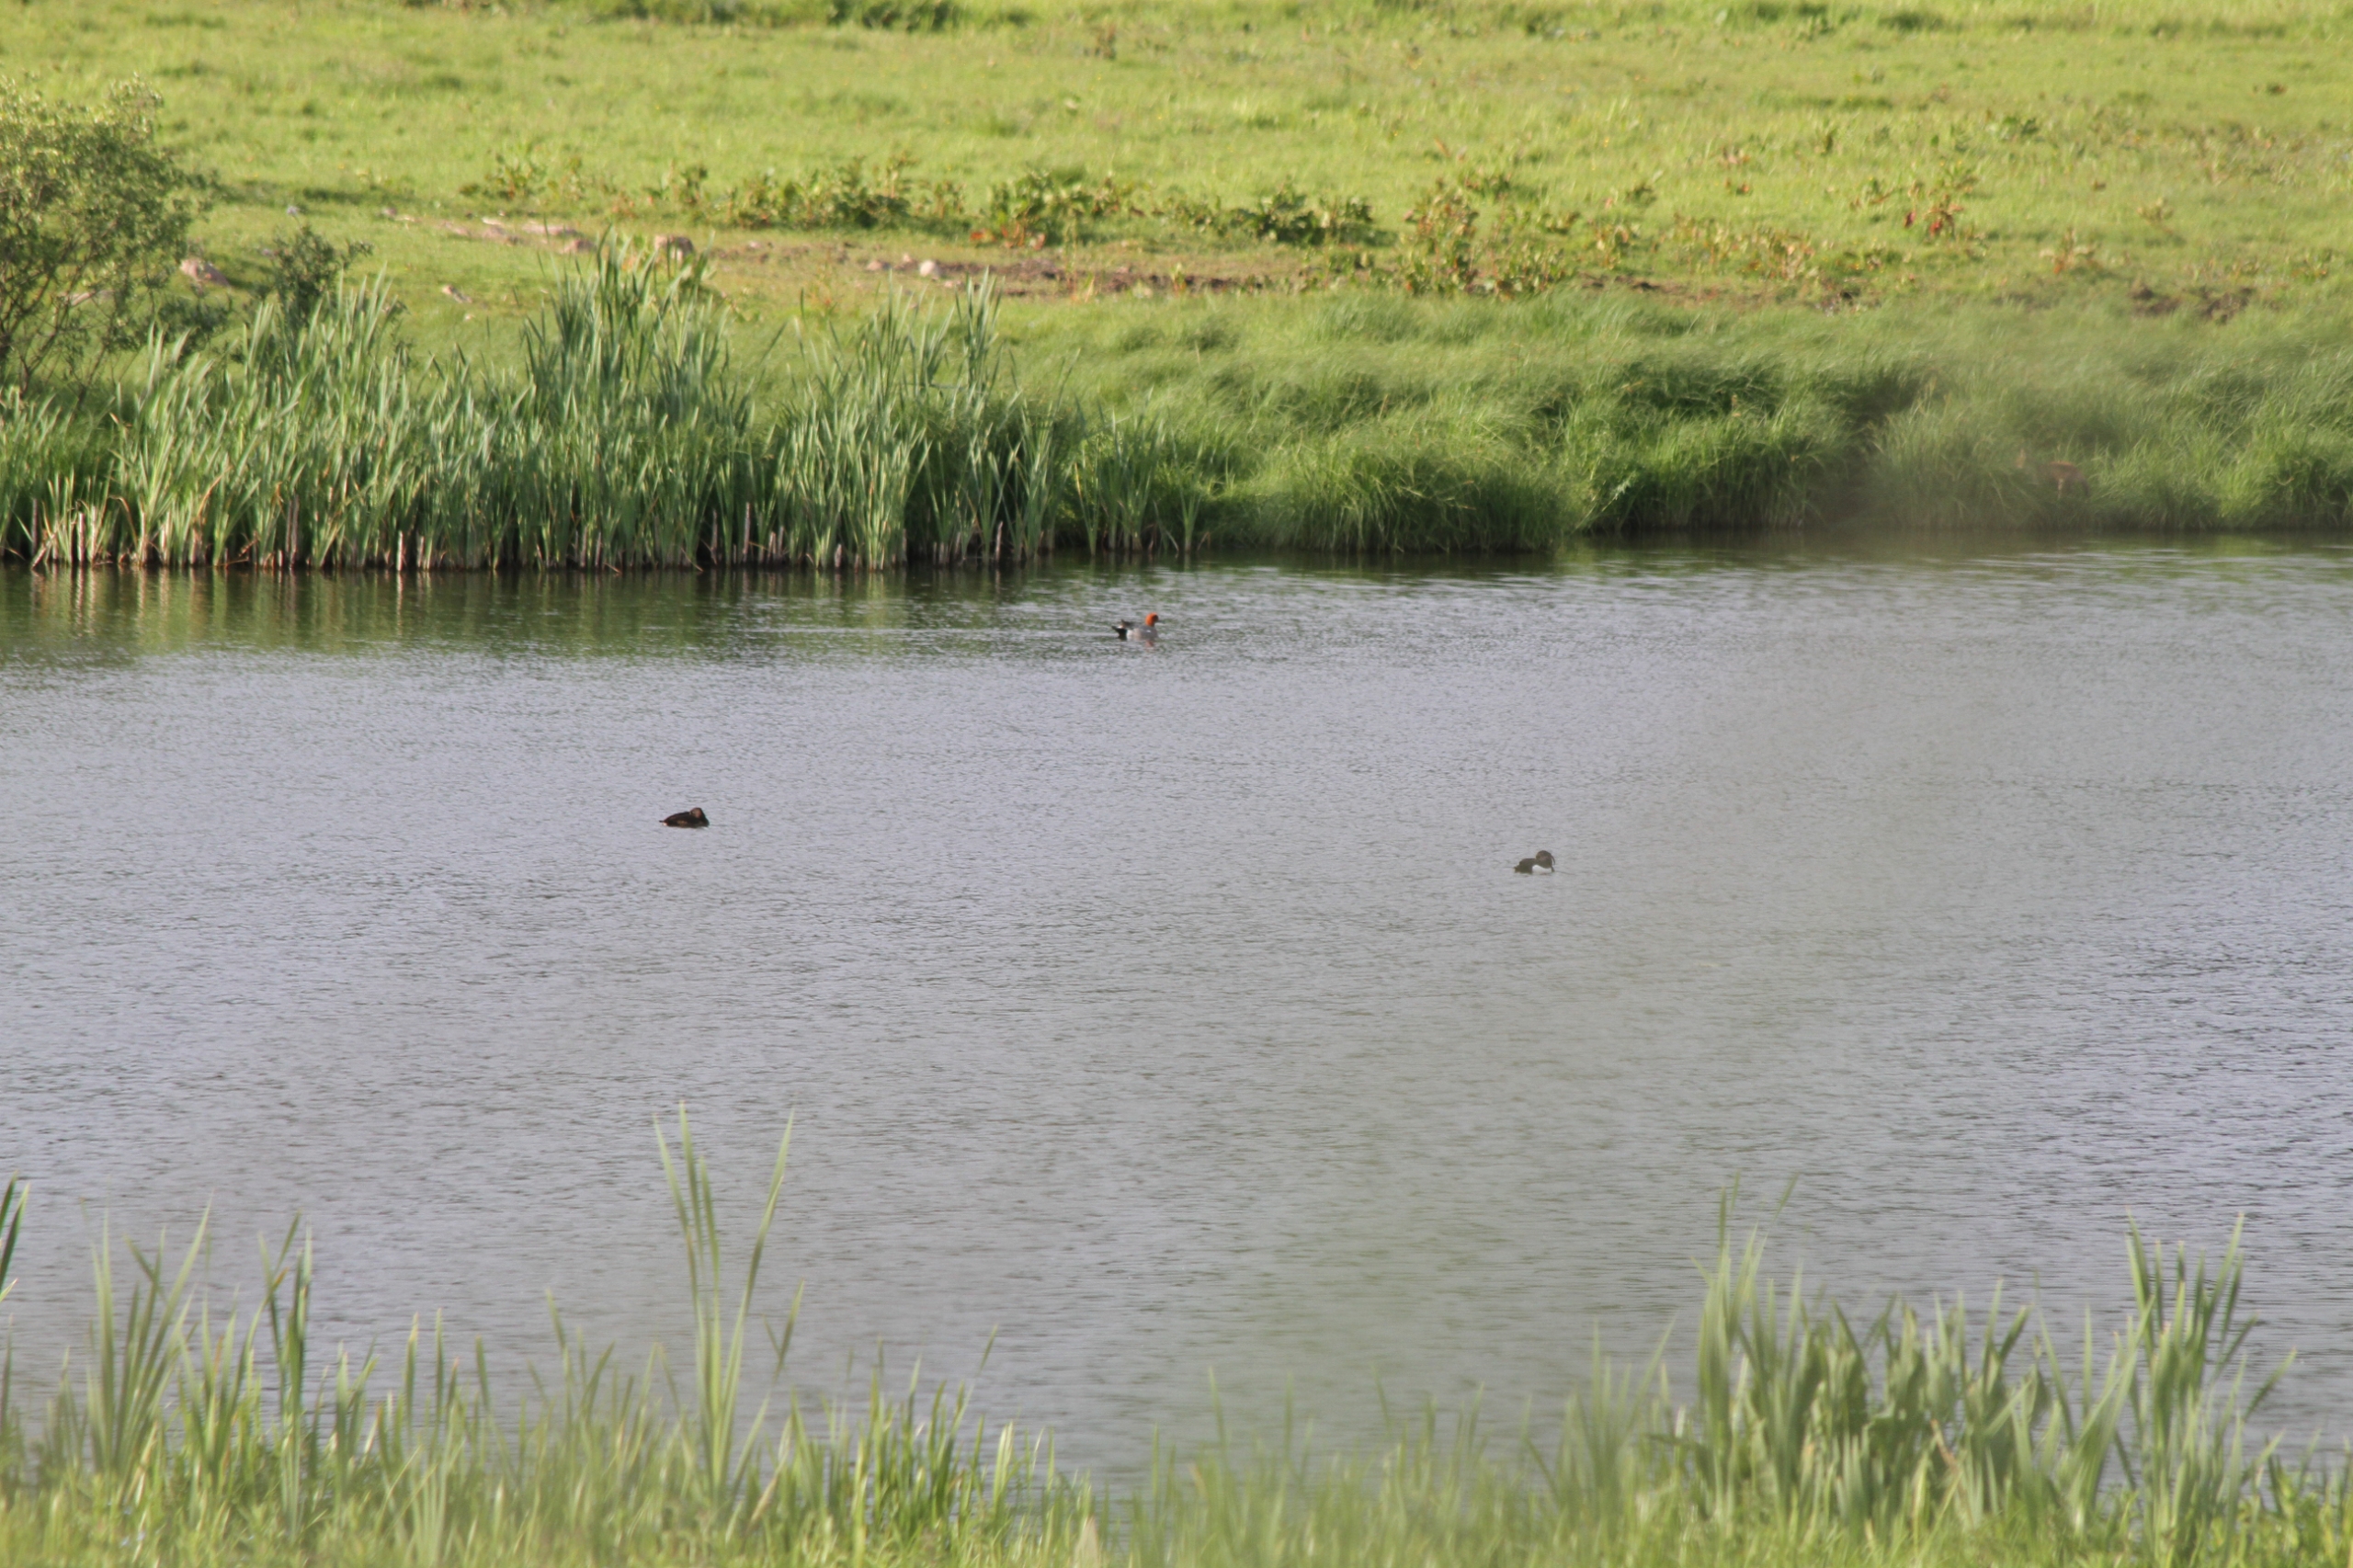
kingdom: Animalia
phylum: Chordata
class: Aves
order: Anseriformes
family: Anatidae
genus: Mareca
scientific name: Mareca penelope
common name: Pibeand
